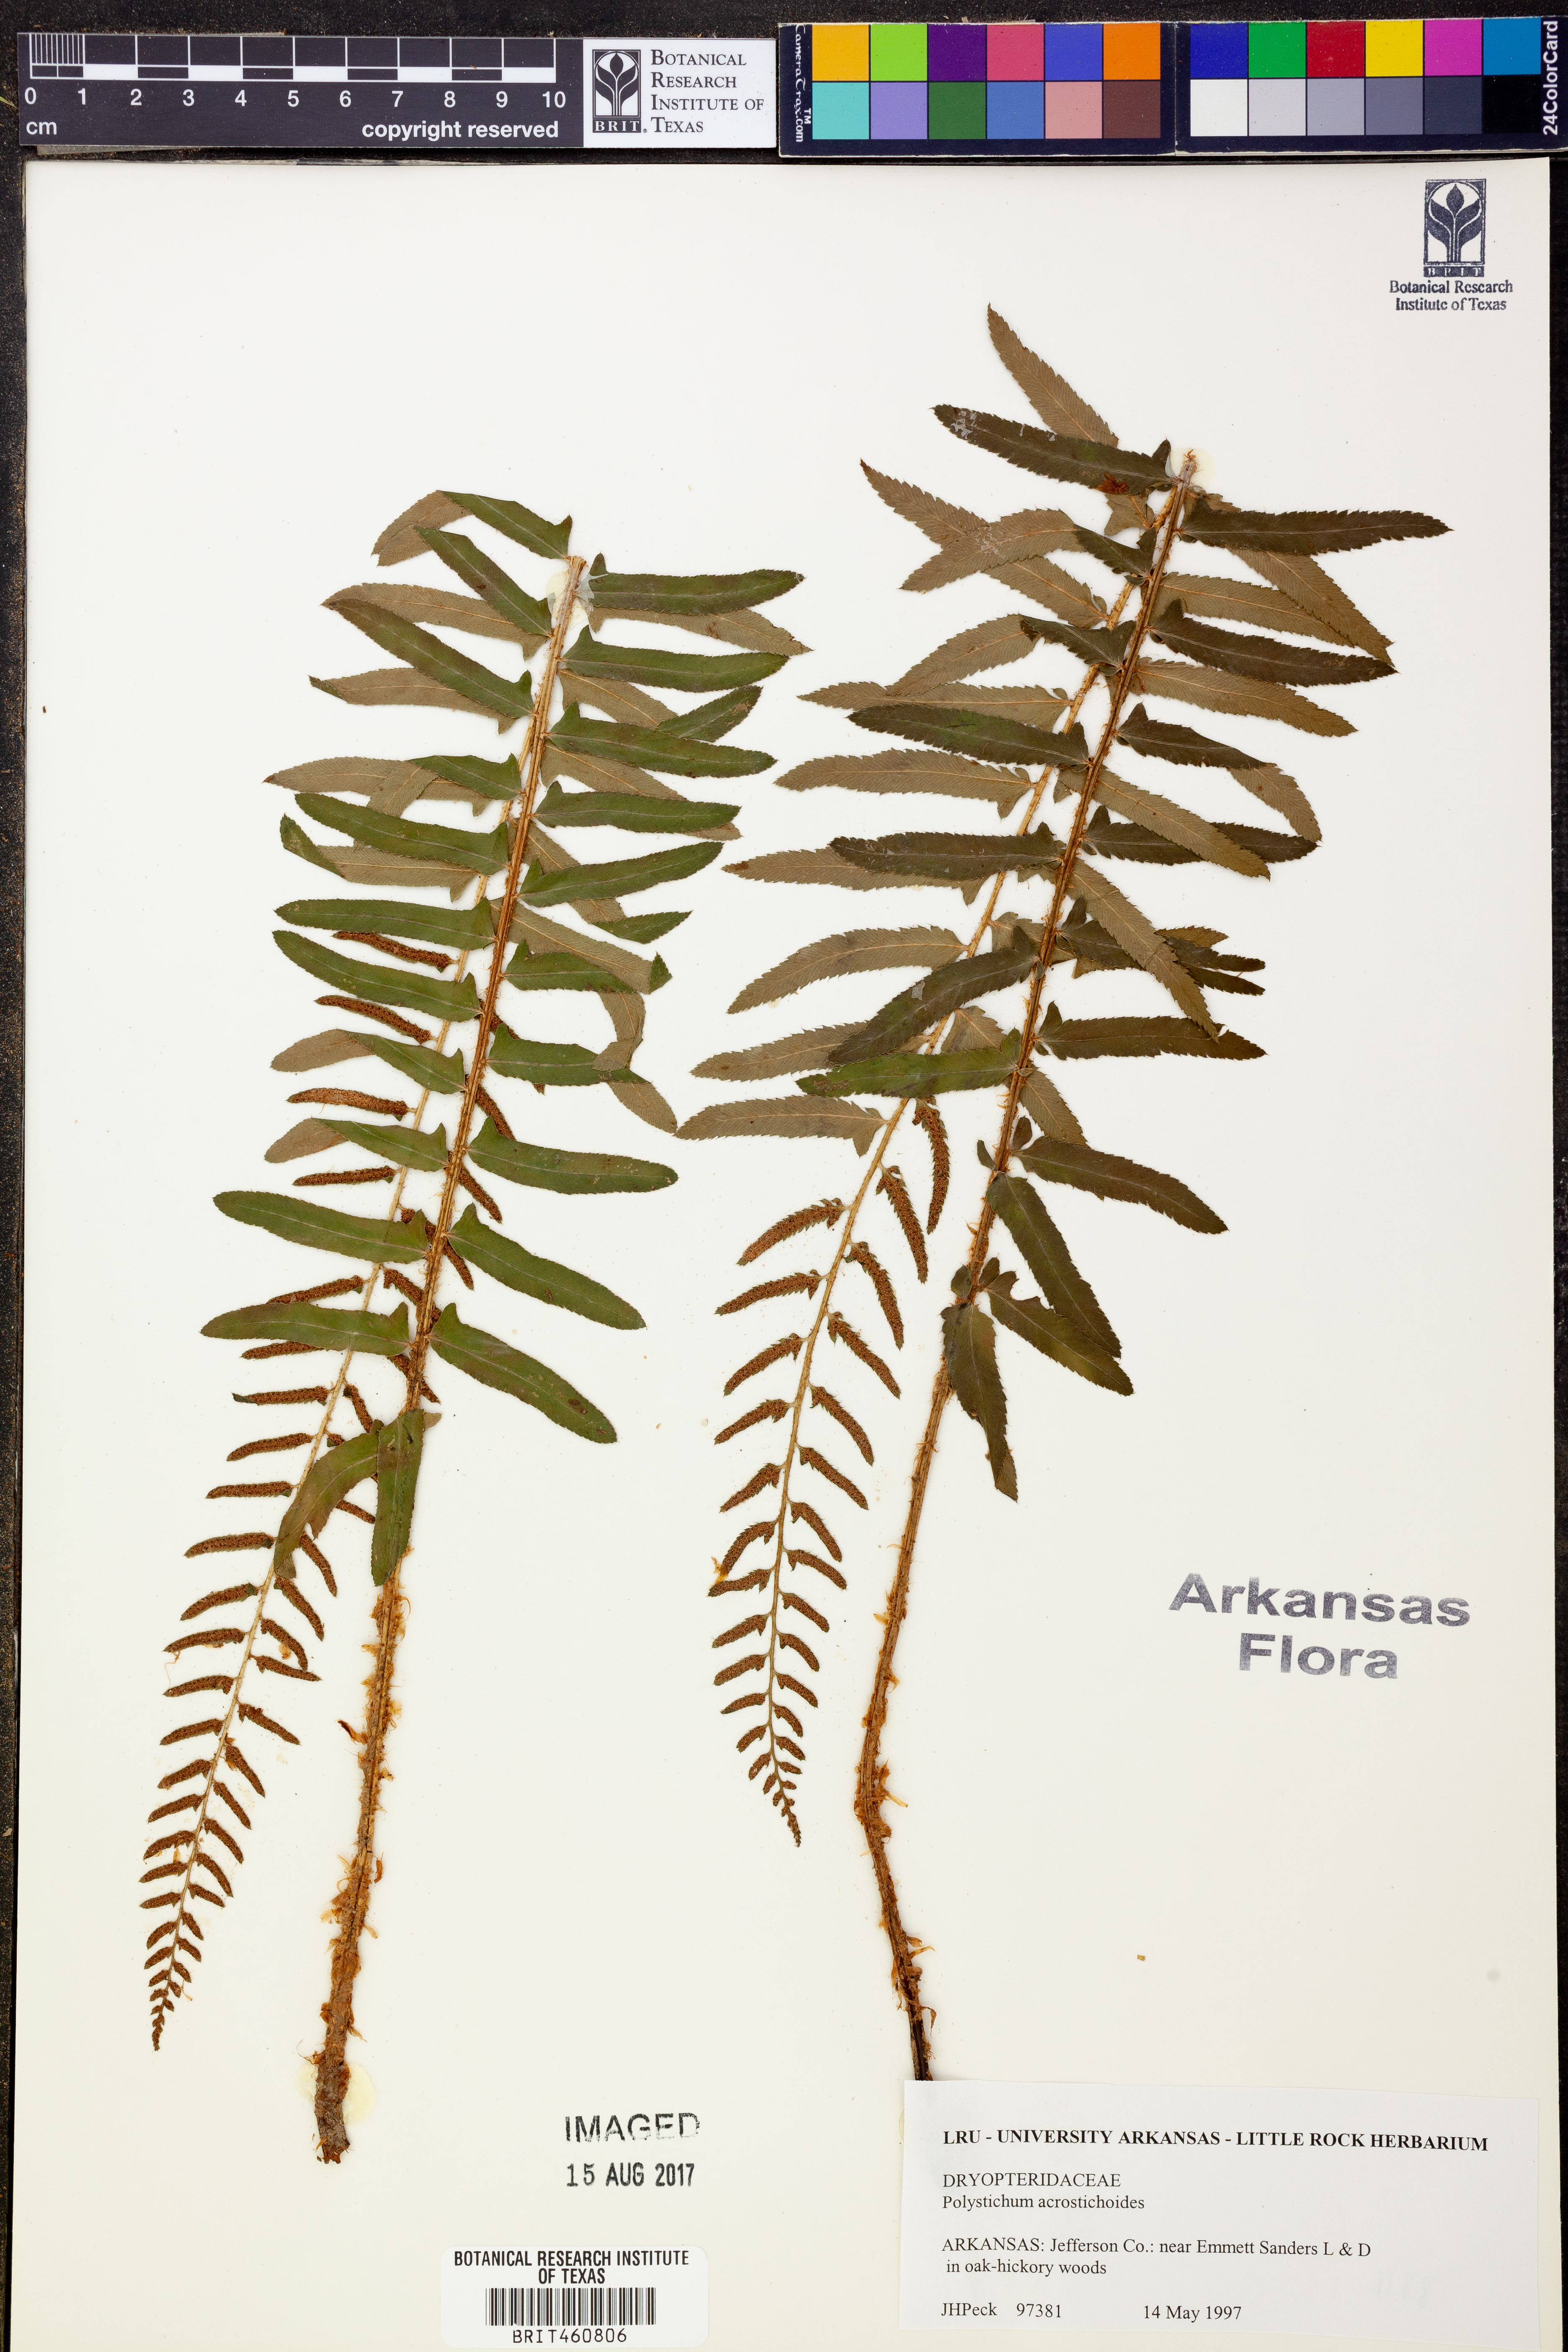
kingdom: Plantae
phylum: Tracheophyta
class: Polypodiopsida
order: Polypodiales
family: Dryopteridaceae
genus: Polystichum
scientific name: Polystichum acrostichoides
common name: Christmas fern
